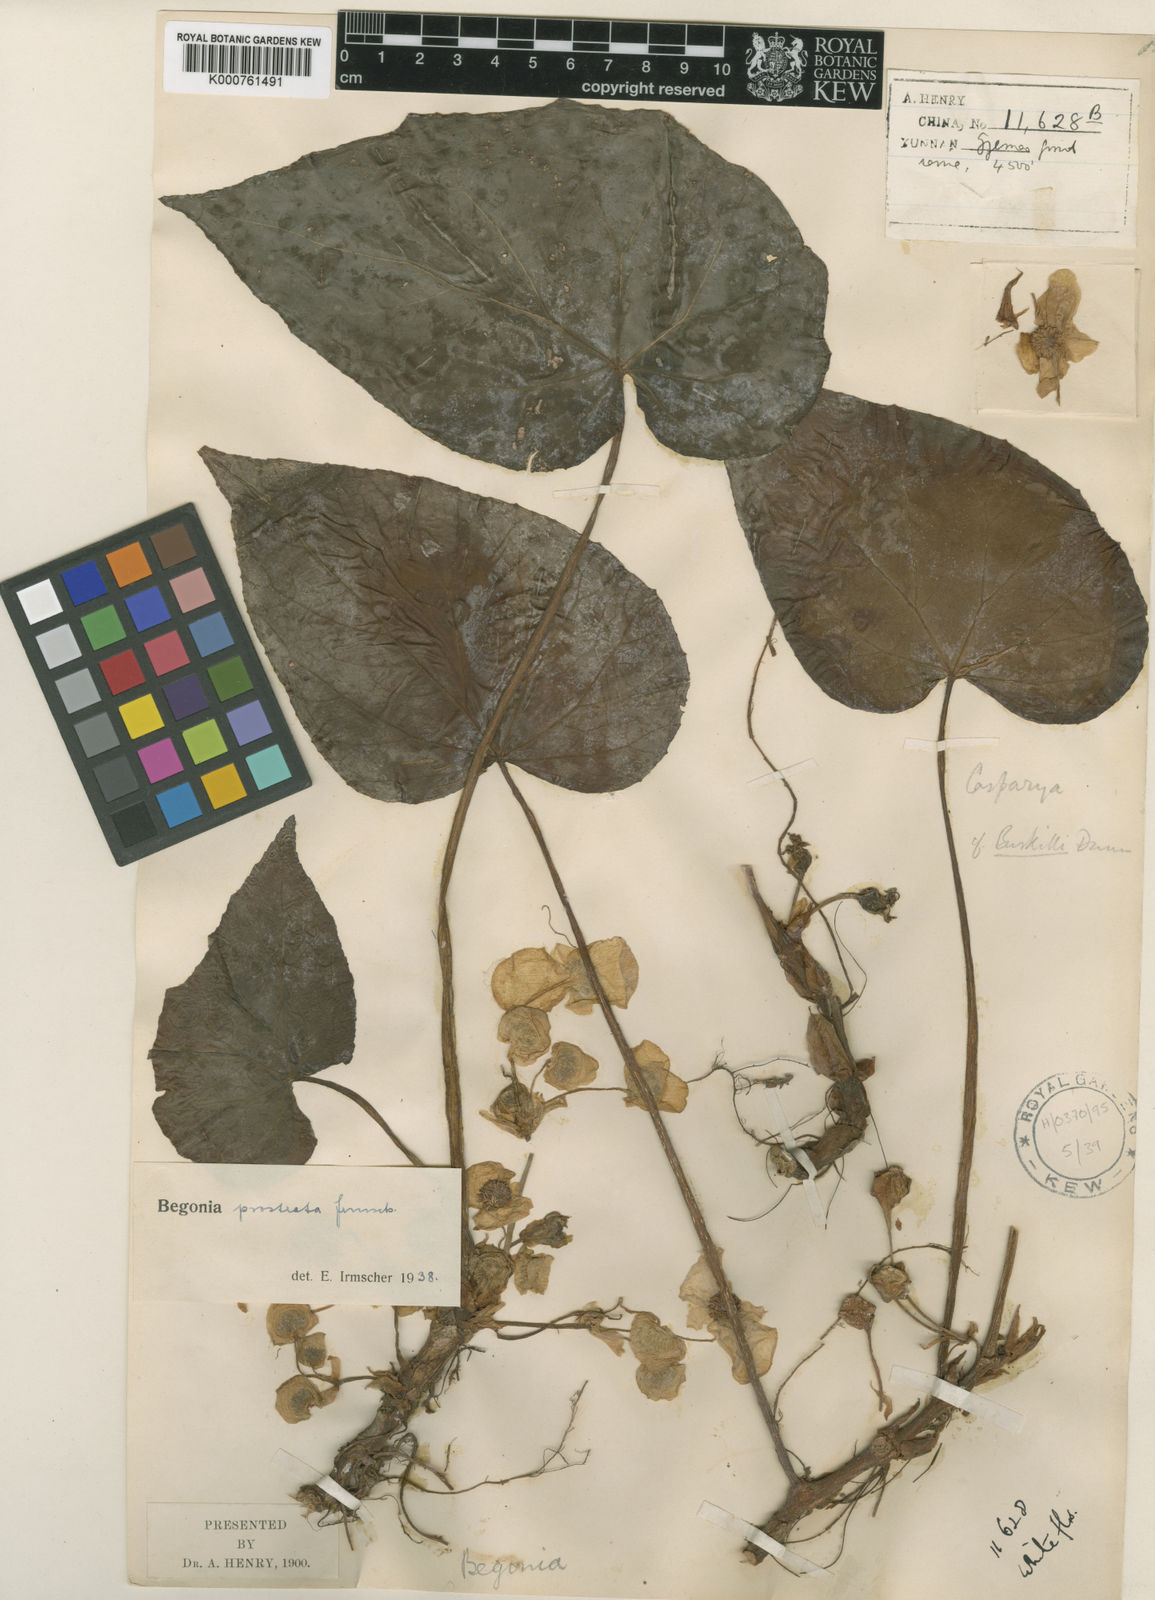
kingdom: Plantae
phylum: Tracheophyta
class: Magnoliopsida
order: Cucurbitales
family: Begoniaceae
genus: Begonia
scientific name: Begonia handelii
